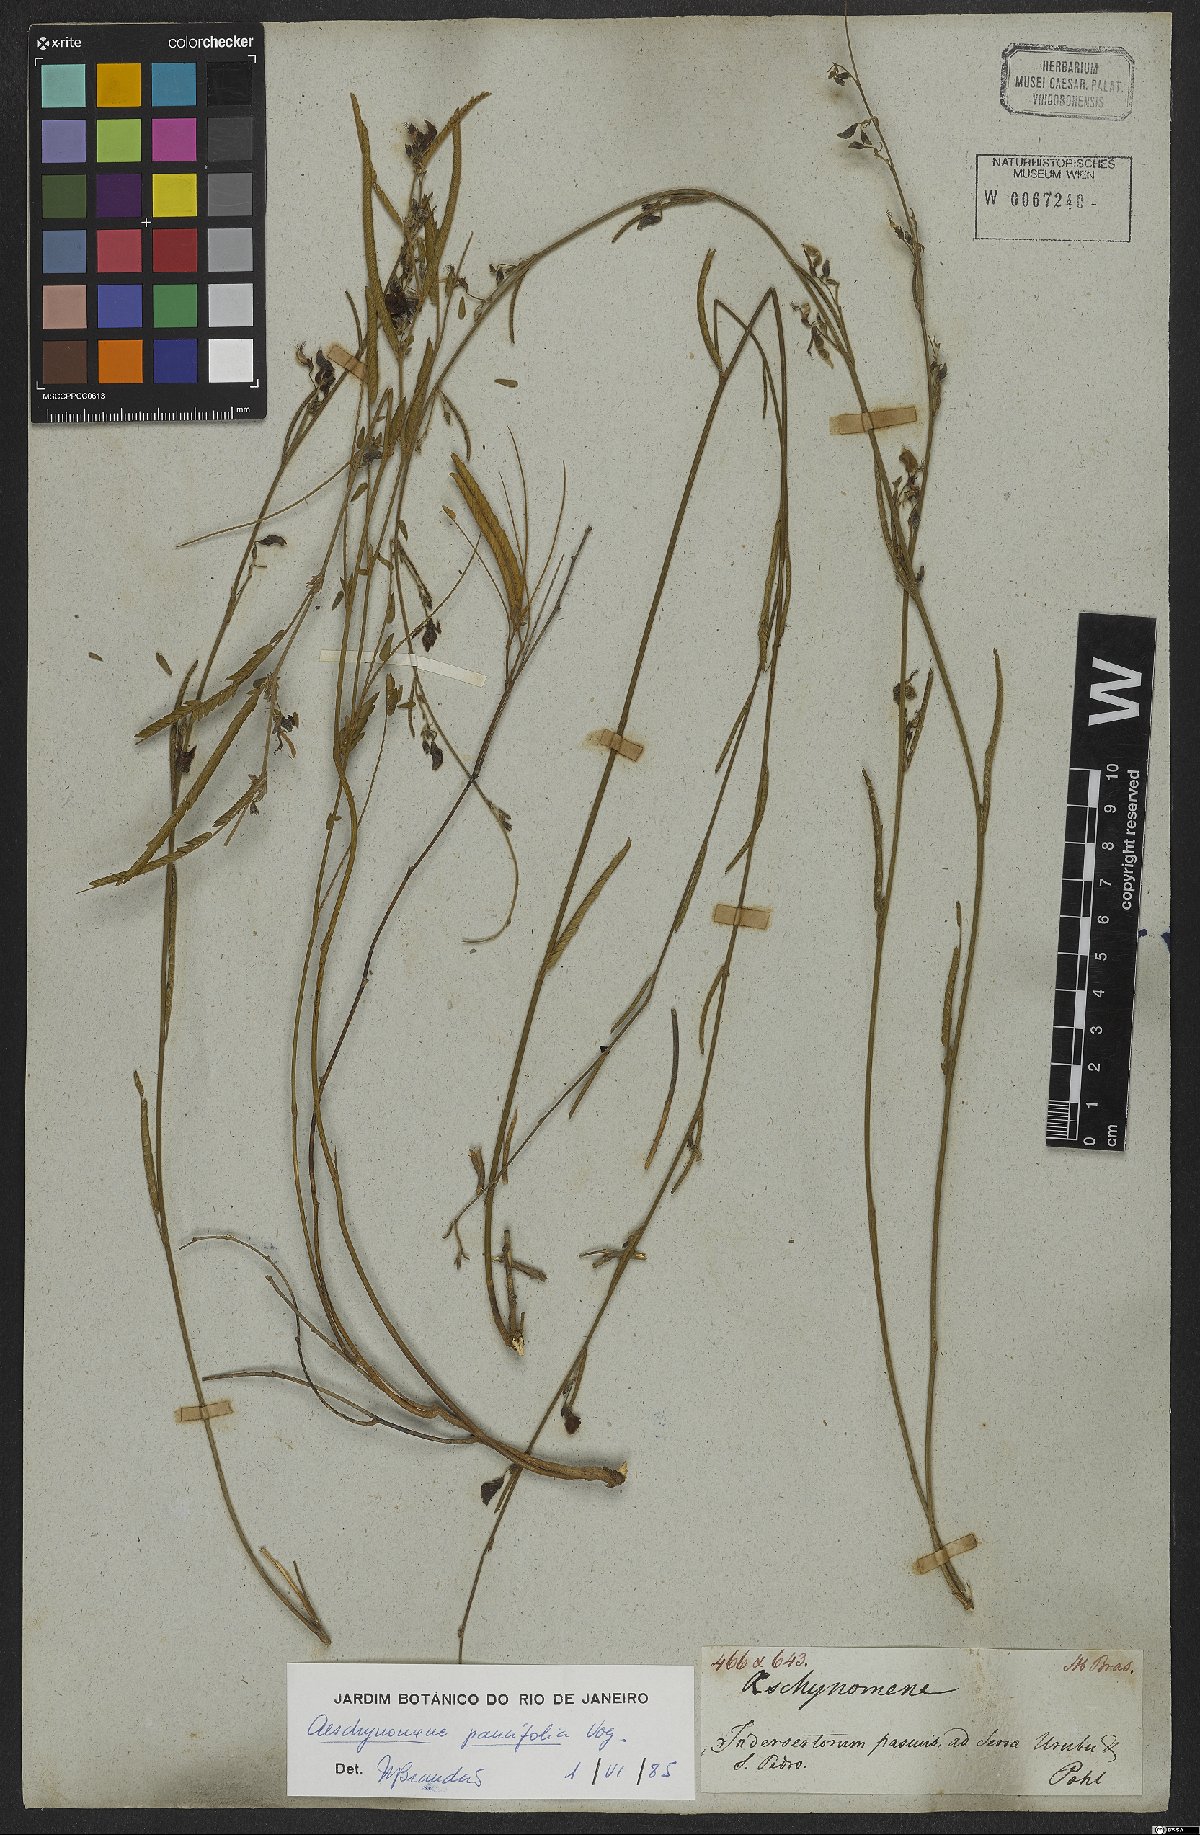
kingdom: Plantae
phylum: Tracheophyta
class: Magnoliopsida
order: Fabales
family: Fabaceae
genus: Ctenodon
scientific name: Ctenodon paucifolius
